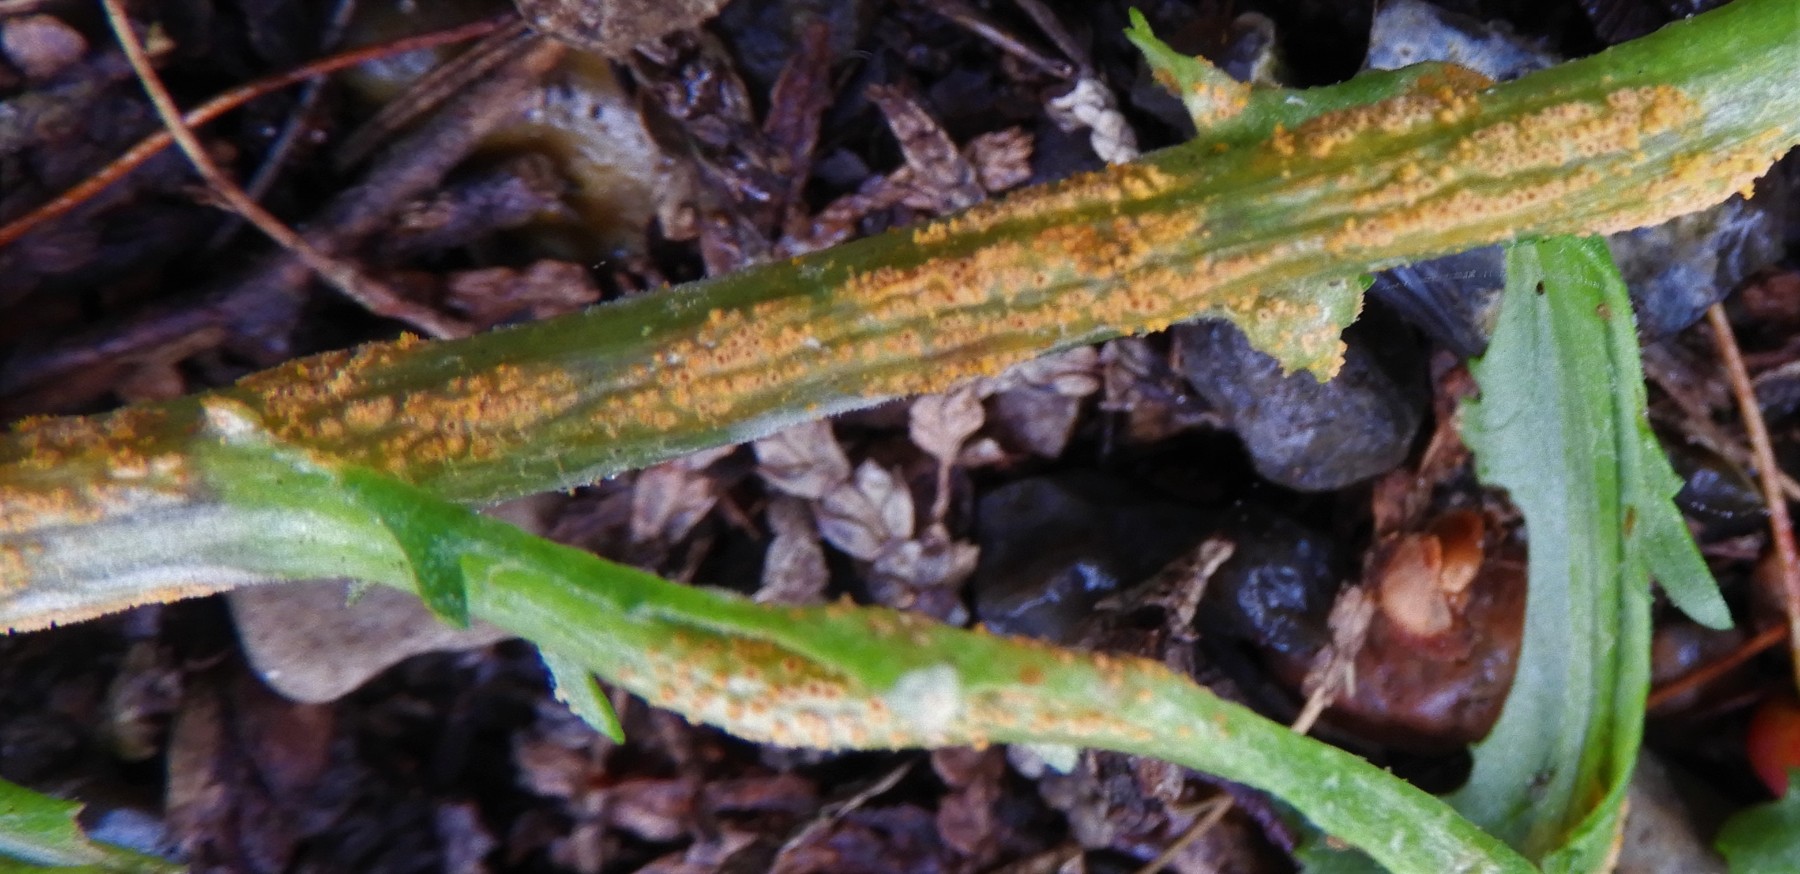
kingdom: Fungi
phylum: Basidiomycota
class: Pucciniomycetes
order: Pucciniales
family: Pucciniaceae
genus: Puccinia
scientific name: Puccinia lagenophorae
